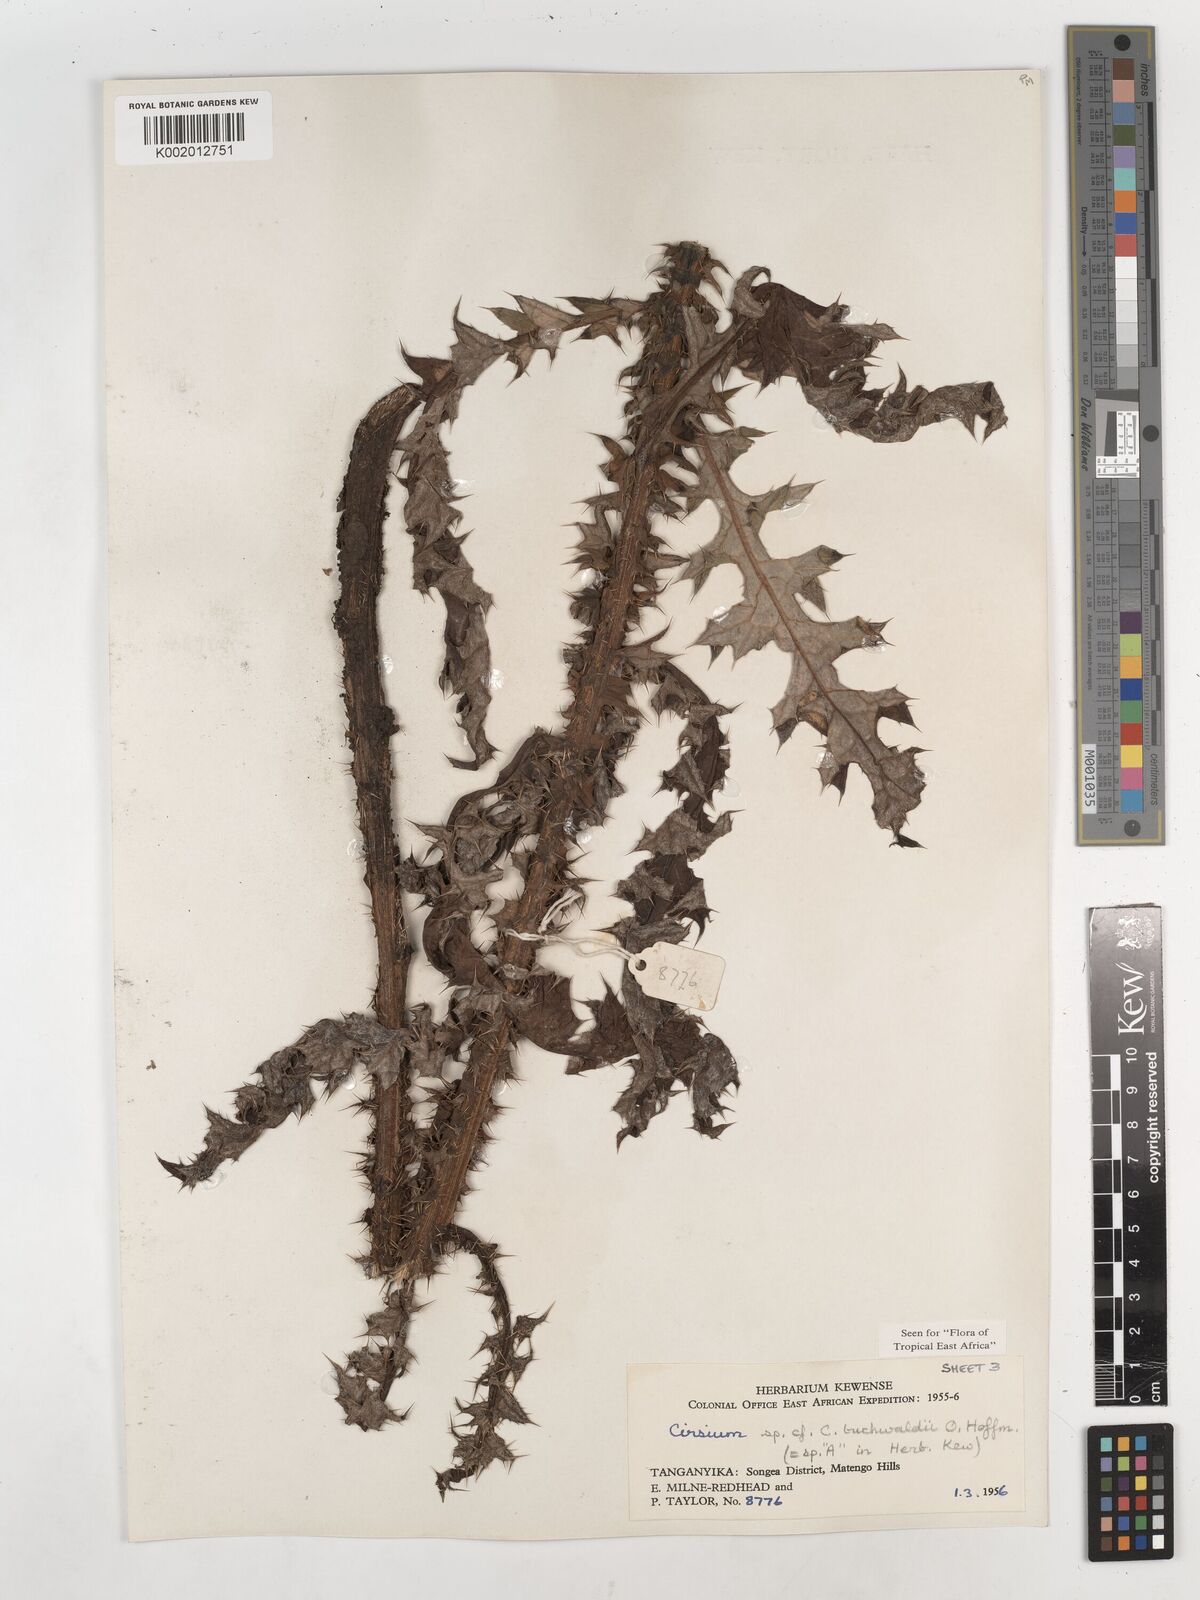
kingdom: Plantae
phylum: Tracheophyta
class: Magnoliopsida
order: Asterales
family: Asteraceae
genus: Cirsium
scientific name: Cirsium buchwaldii
